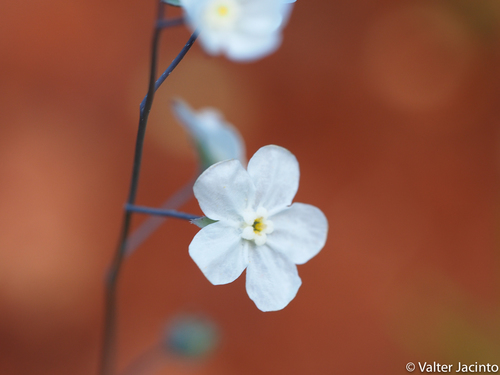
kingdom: Plantae
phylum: Tracheophyta
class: Magnoliopsida
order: Boraginales
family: Boraginaceae
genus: Iberodes
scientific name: Iberodes linifolia
